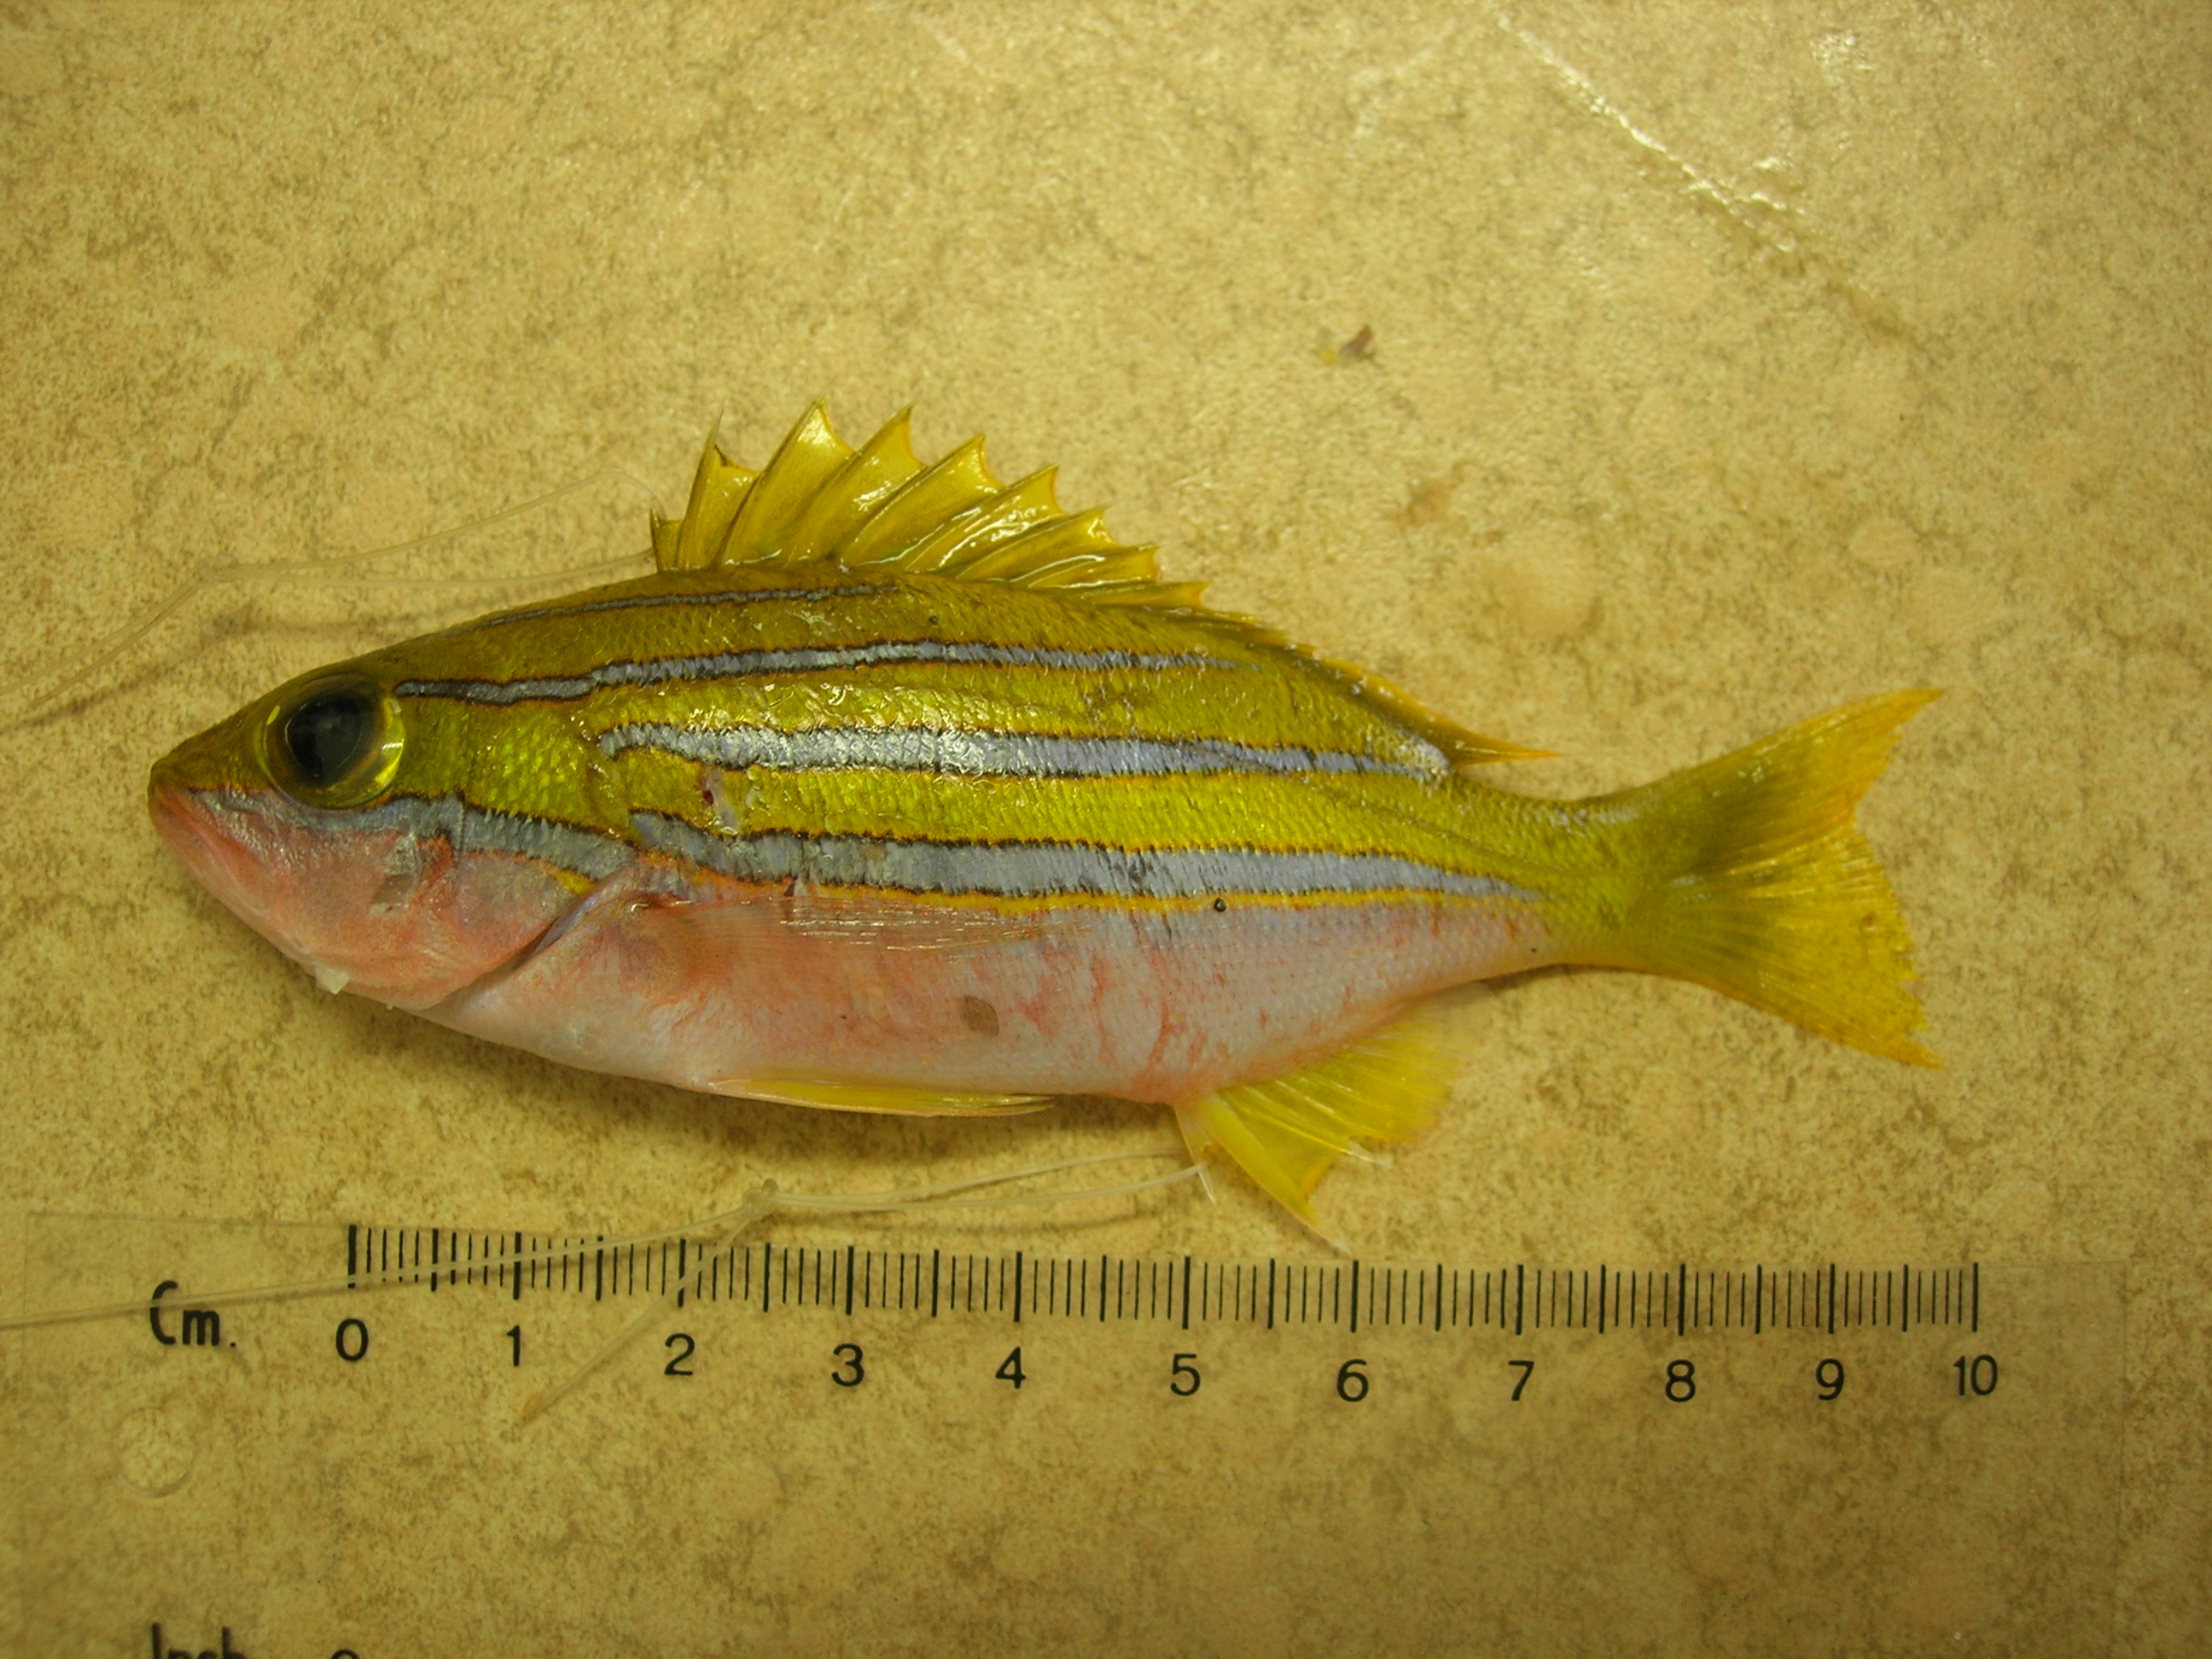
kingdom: Animalia
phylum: Chordata
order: Perciformes
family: Lutjanidae
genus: Lutjanus
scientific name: Lutjanus bengalensis
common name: Bengal snapper
